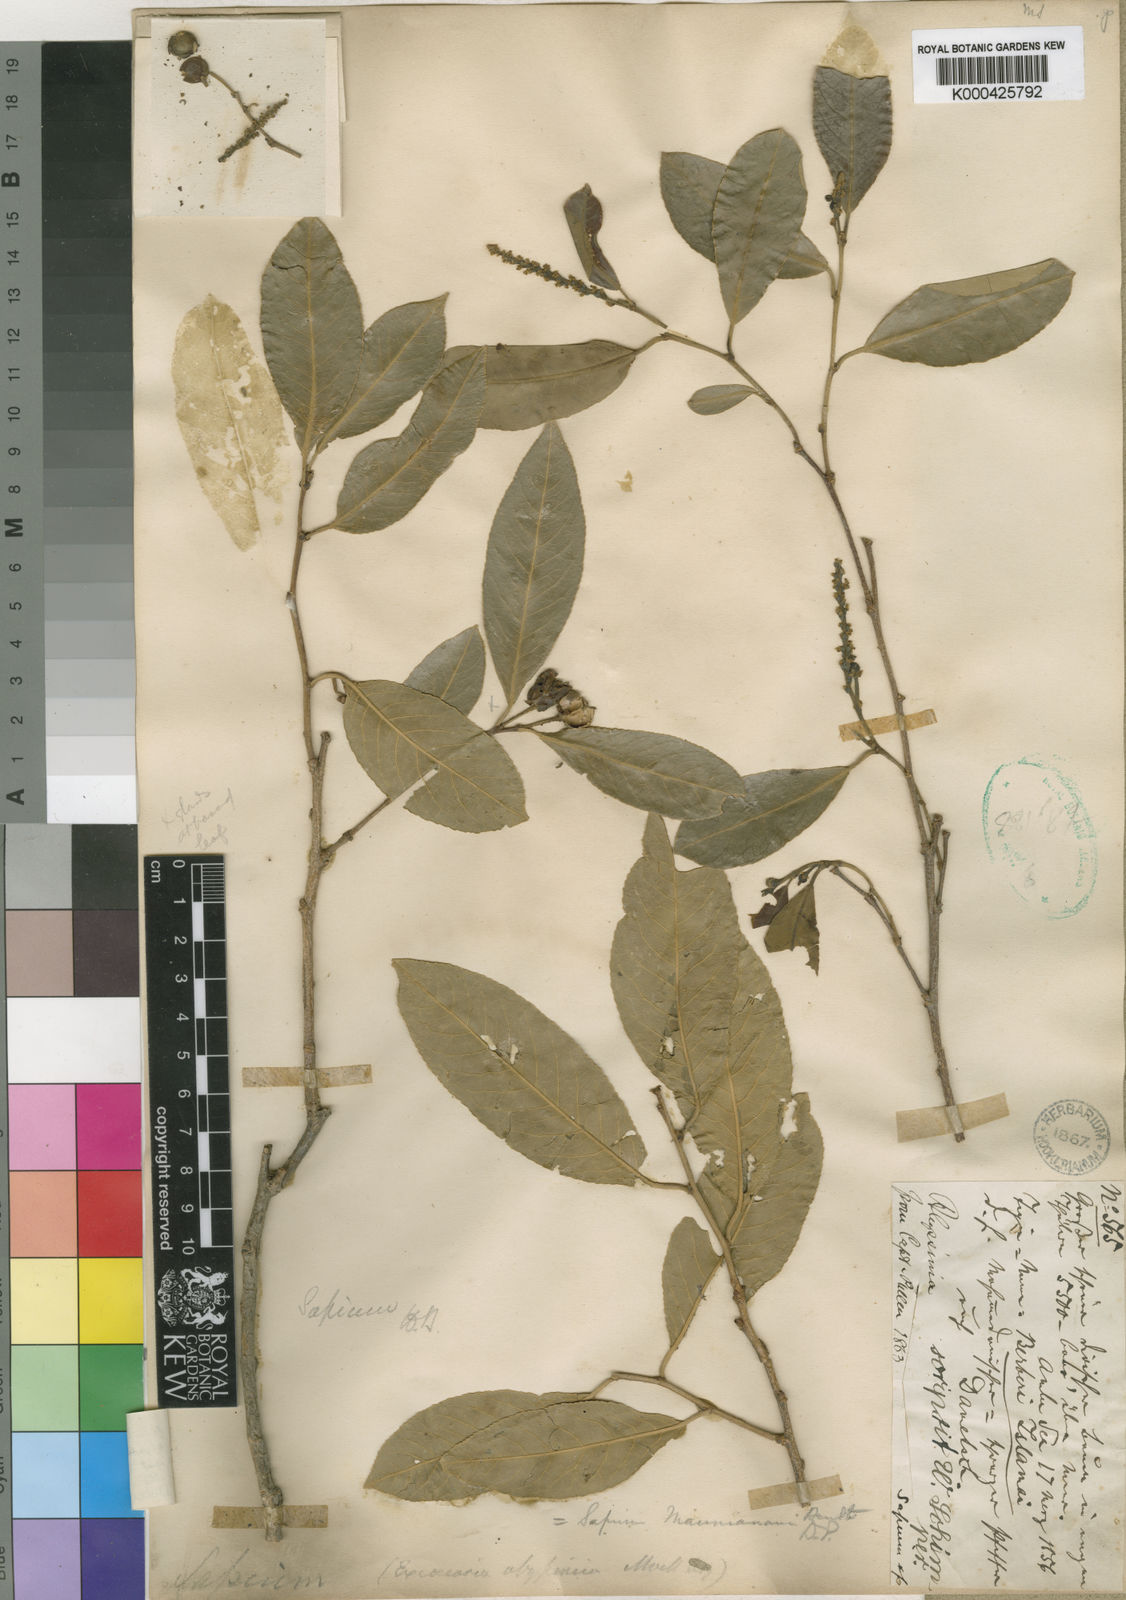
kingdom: Plantae
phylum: Tracheophyta
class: Magnoliopsida
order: Malpighiales
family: Euphorbiaceae
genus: Shirakiopsis
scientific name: Shirakiopsis elliptica
